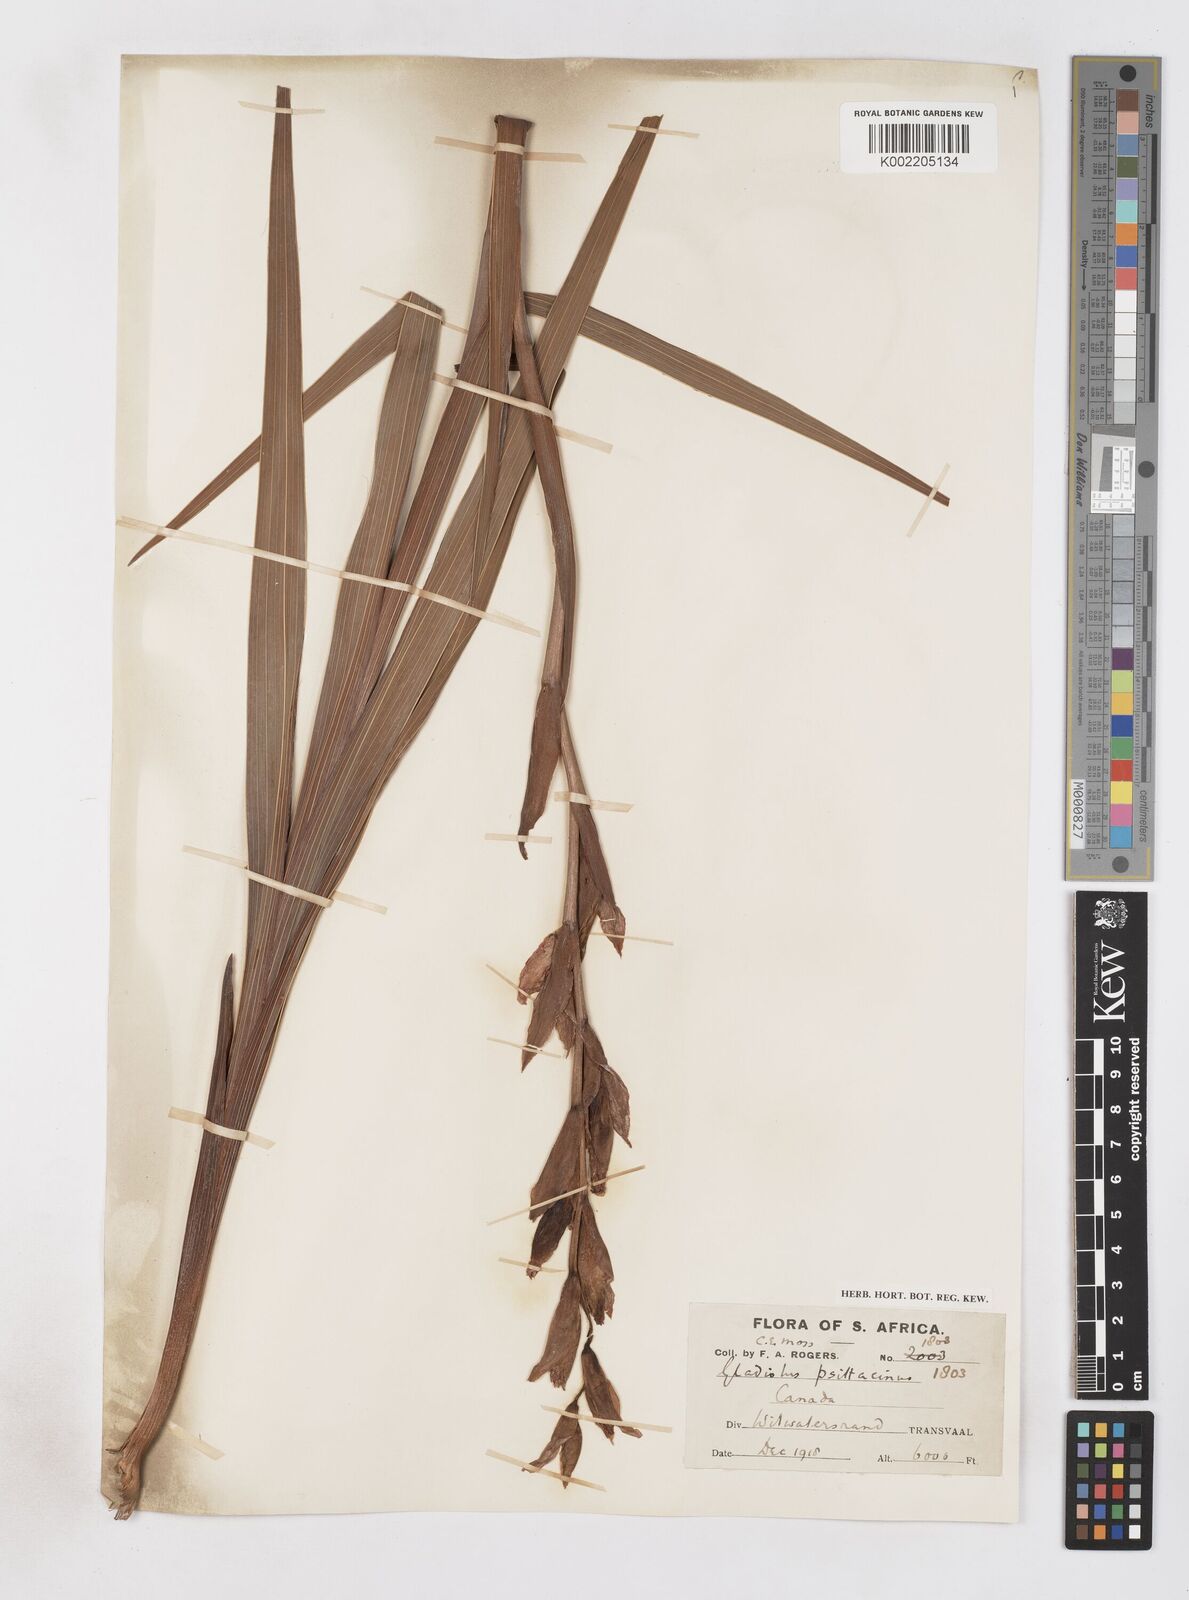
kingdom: Plantae
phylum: Tracheophyta
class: Liliopsida
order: Asparagales
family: Iridaceae
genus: Gladiolus
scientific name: Gladiolus dalenii
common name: Cornflag
